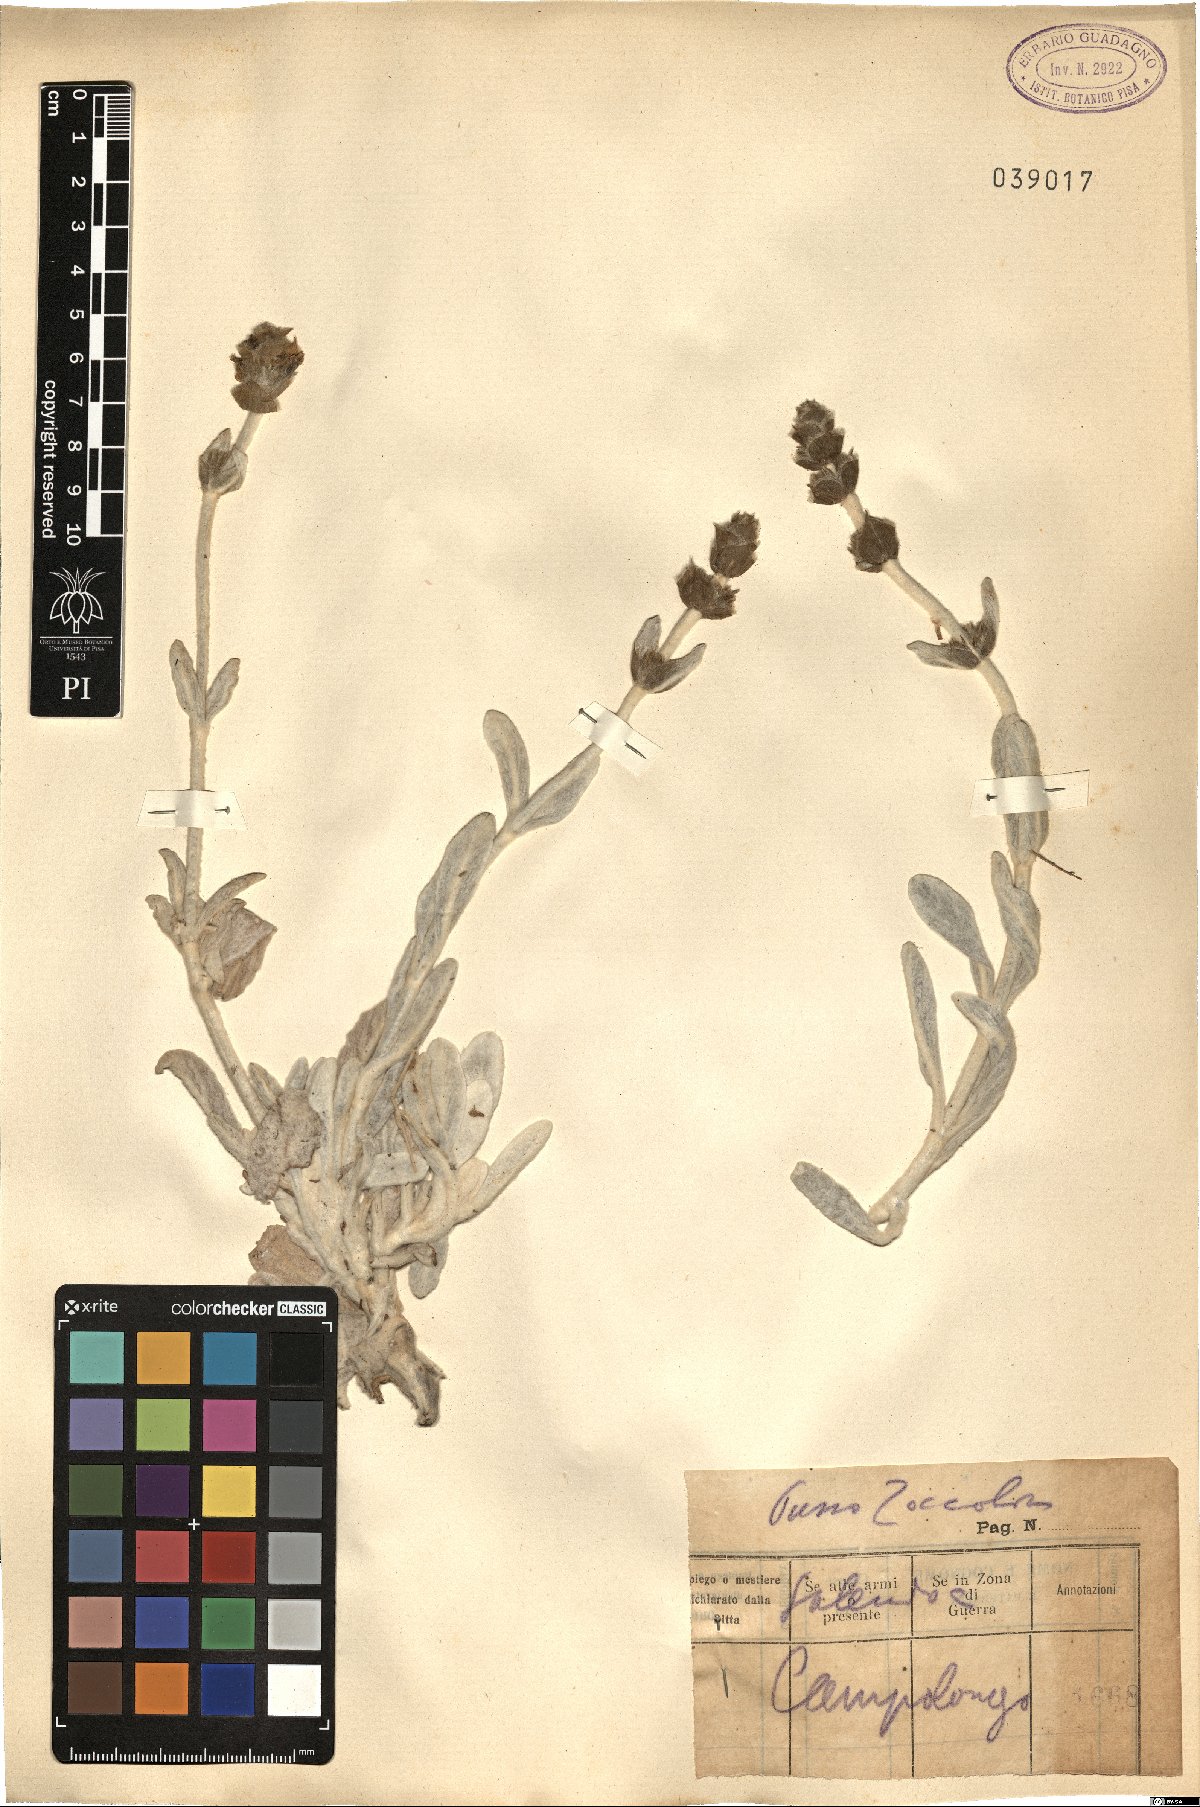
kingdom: Plantae
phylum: Tracheophyta
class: Magnoliopsida
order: Lamiales
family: Lamiaceae
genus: Sideritis
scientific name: Sideritis
